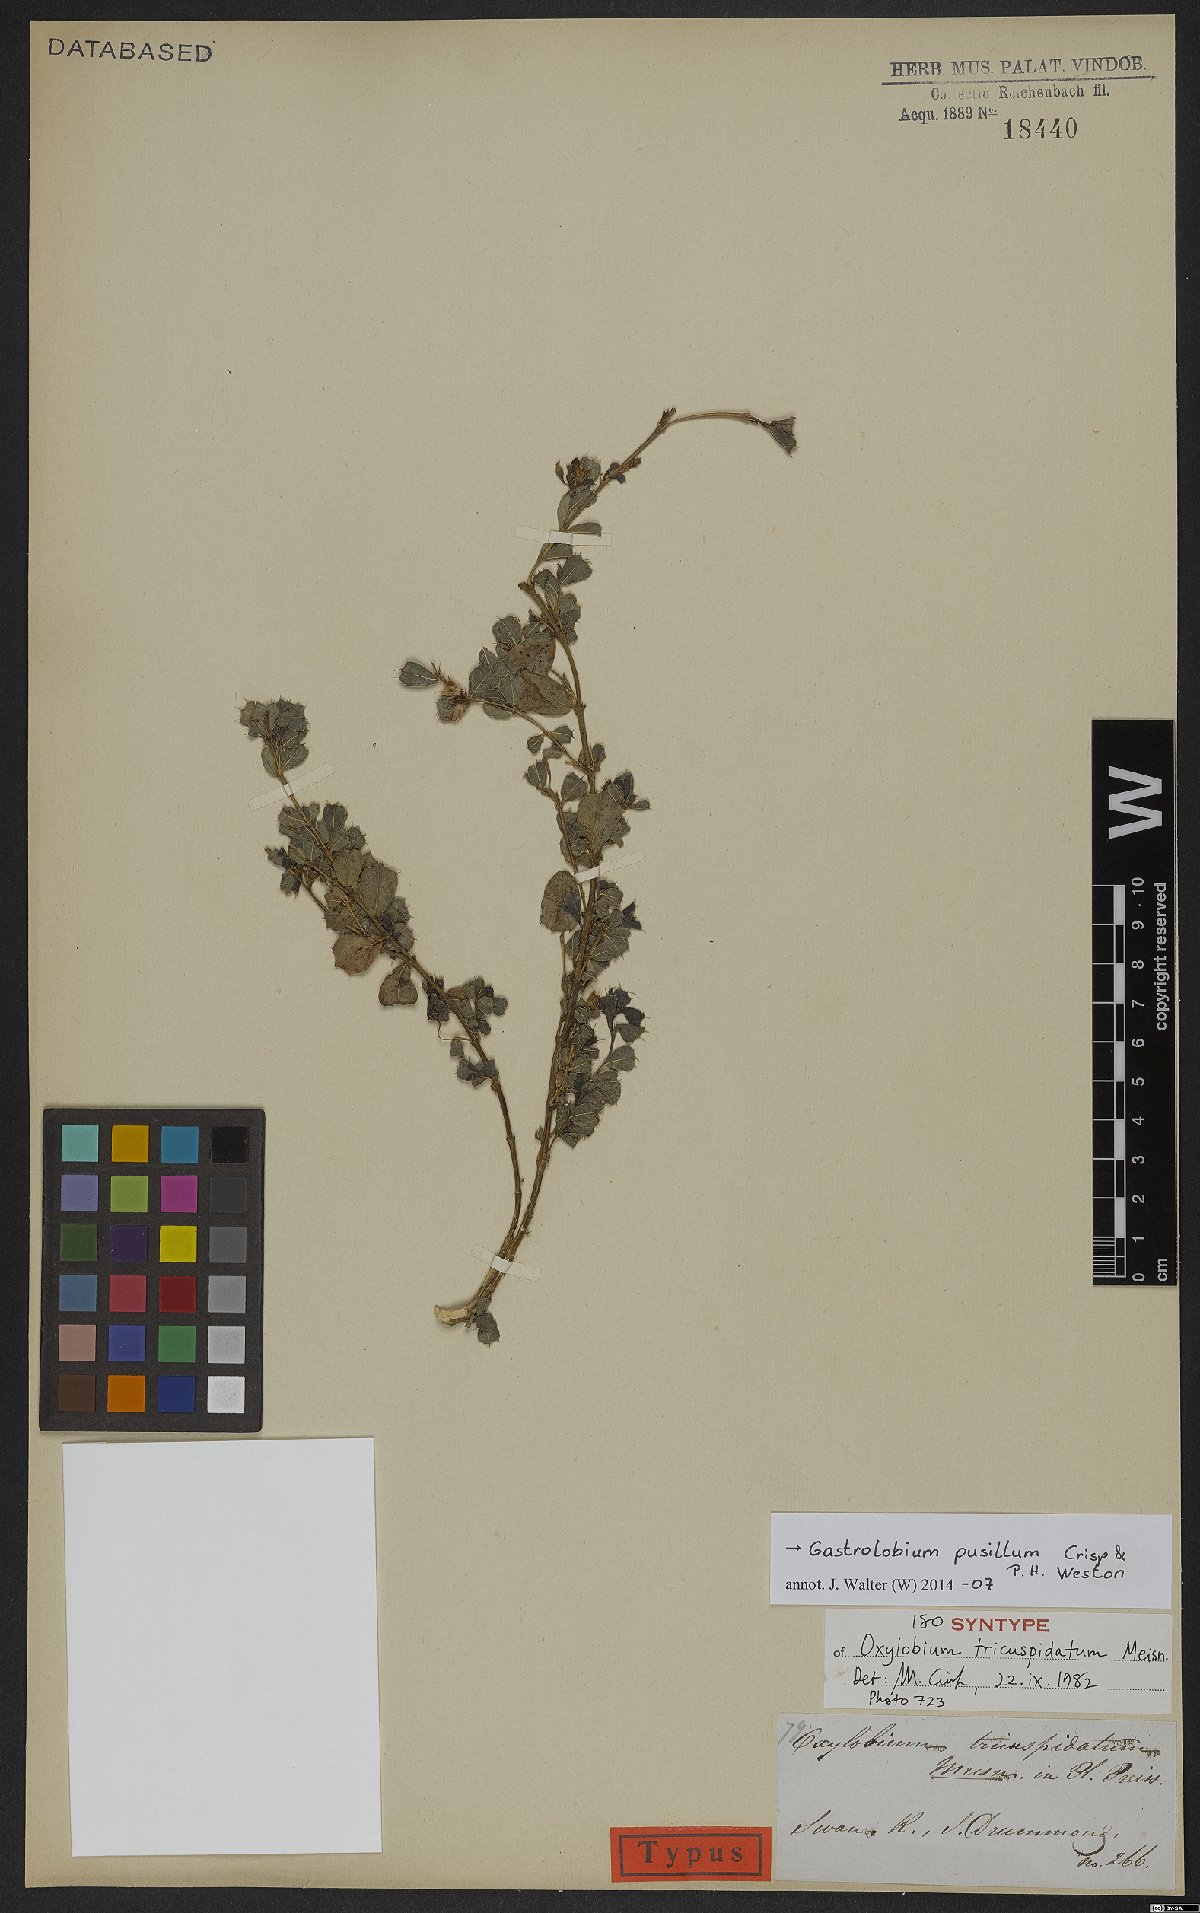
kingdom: Plantae
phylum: Tracheophyta
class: Magnoliopsida
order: Fabales
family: Fabaceae
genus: Gastrolobium
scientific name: Gastrolobium pusillum
